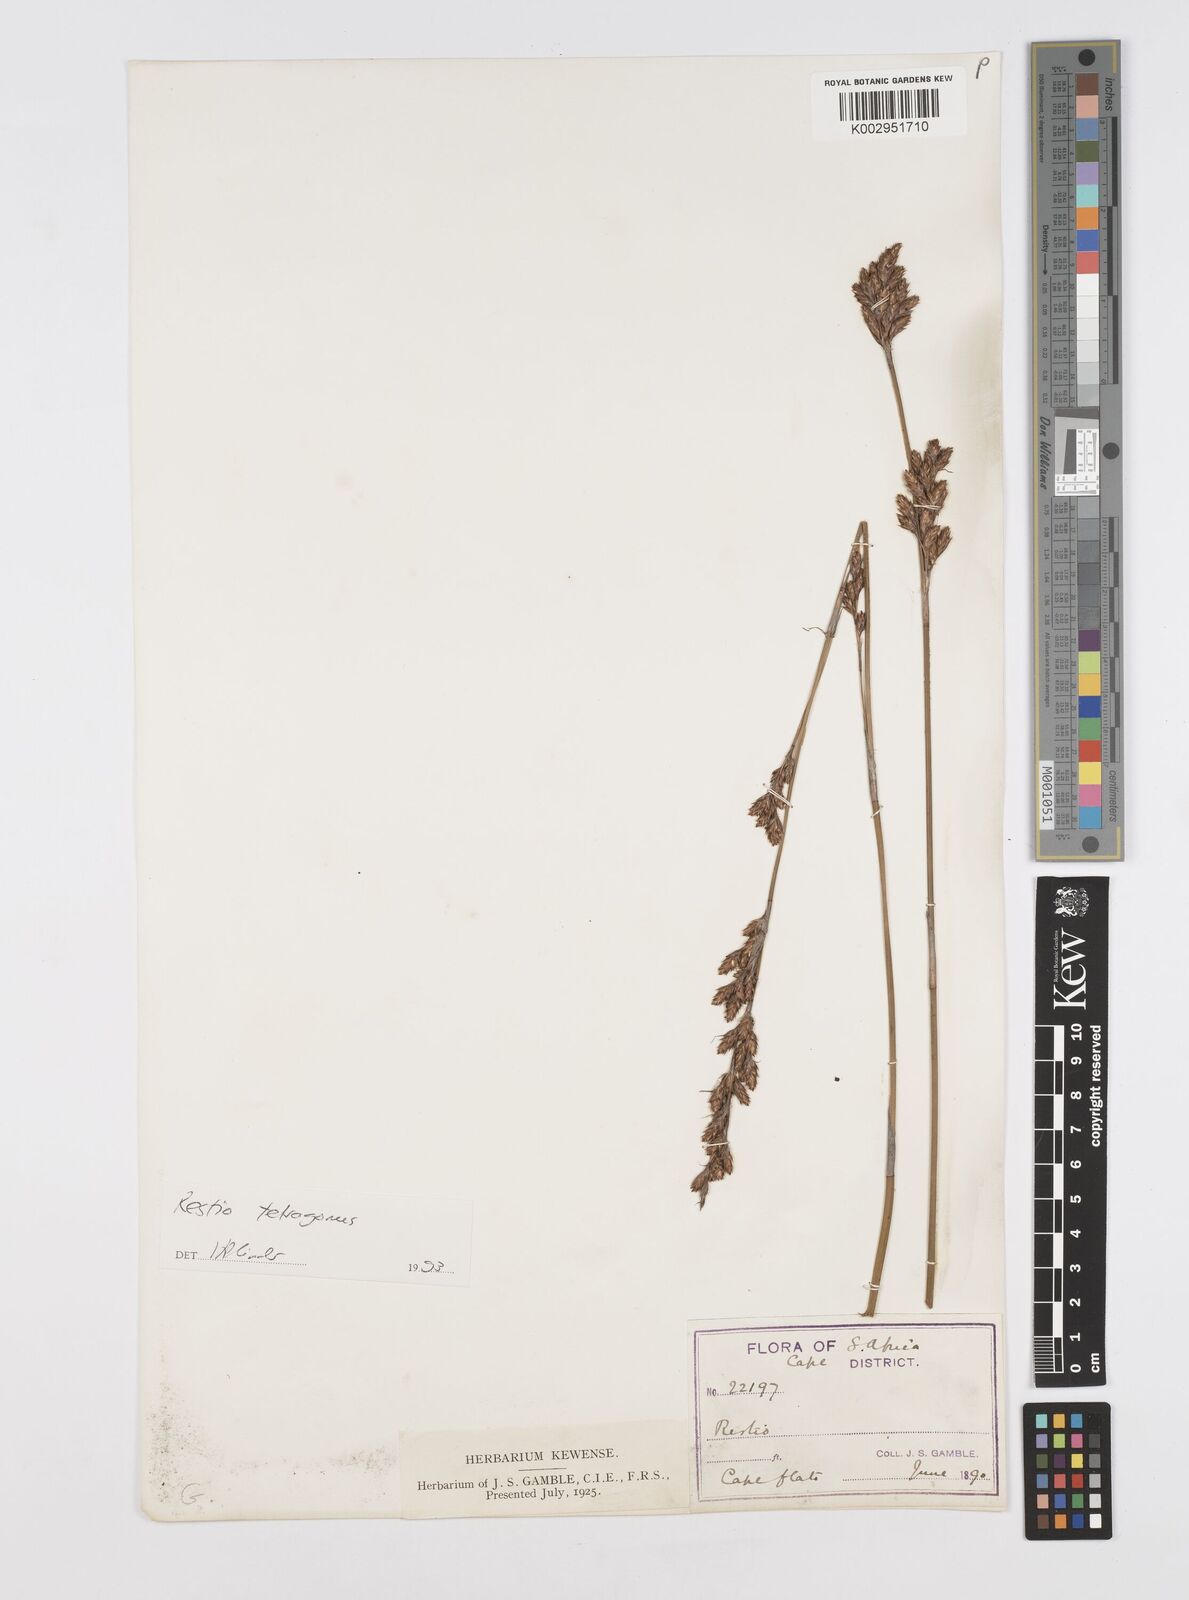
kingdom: Plantae
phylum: Tracheophyta
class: Liliopsida
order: Poales
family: Restionaceae
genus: Restio
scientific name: Restio tetragonus
